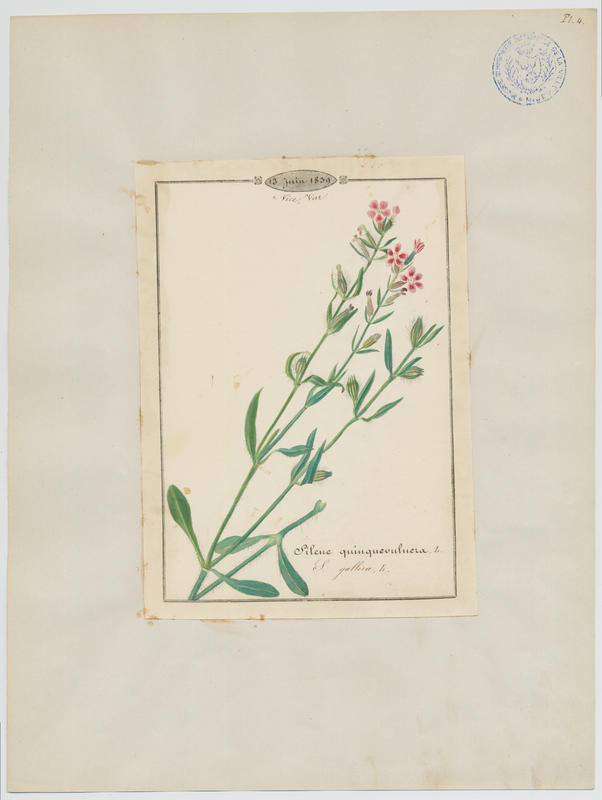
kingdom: Plantae
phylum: Tracheophyta
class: Magnoliopsida
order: Caryophyllales
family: Caryophyllaceae
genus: Silene
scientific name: Silene gallica
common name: Small-flowered catchfly
